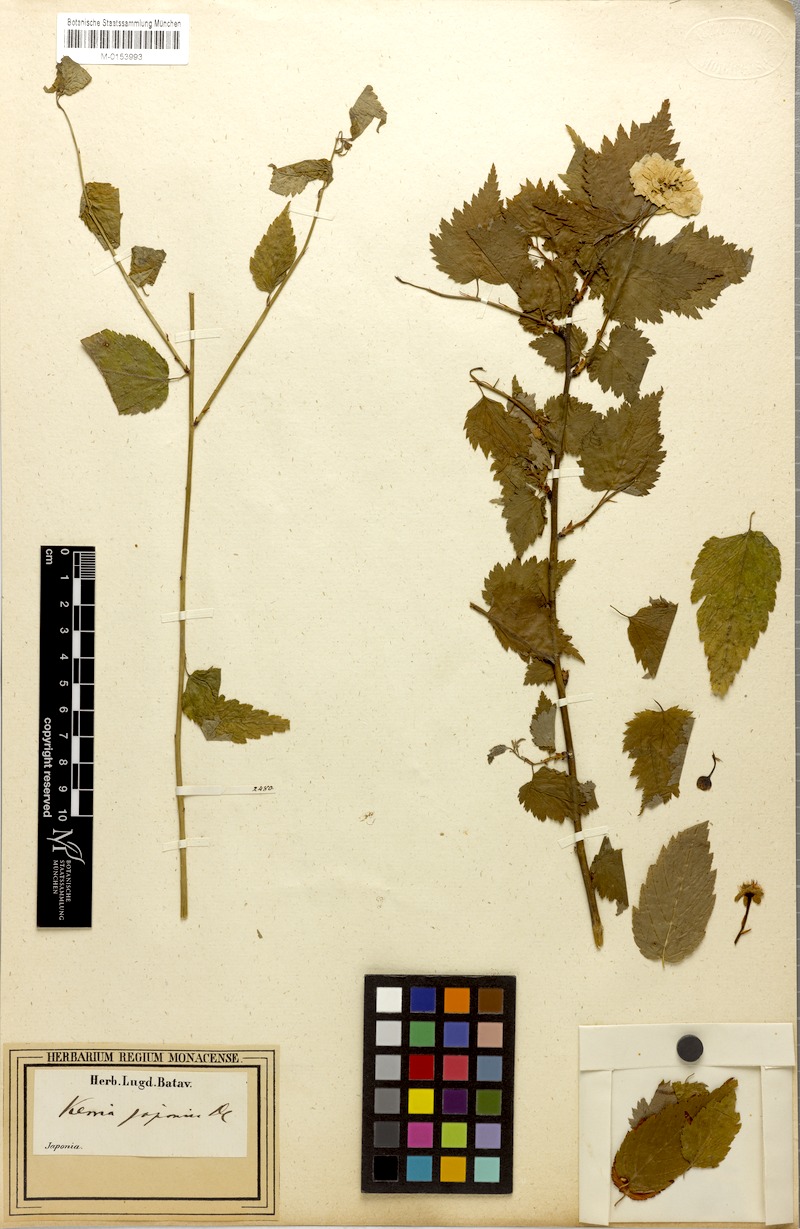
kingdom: Plantae
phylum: Tracheophyta
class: Magnoliopsida
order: Rosales
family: Rosaceae
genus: Kerria
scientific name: Kerria japonica
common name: Japanese kerria
